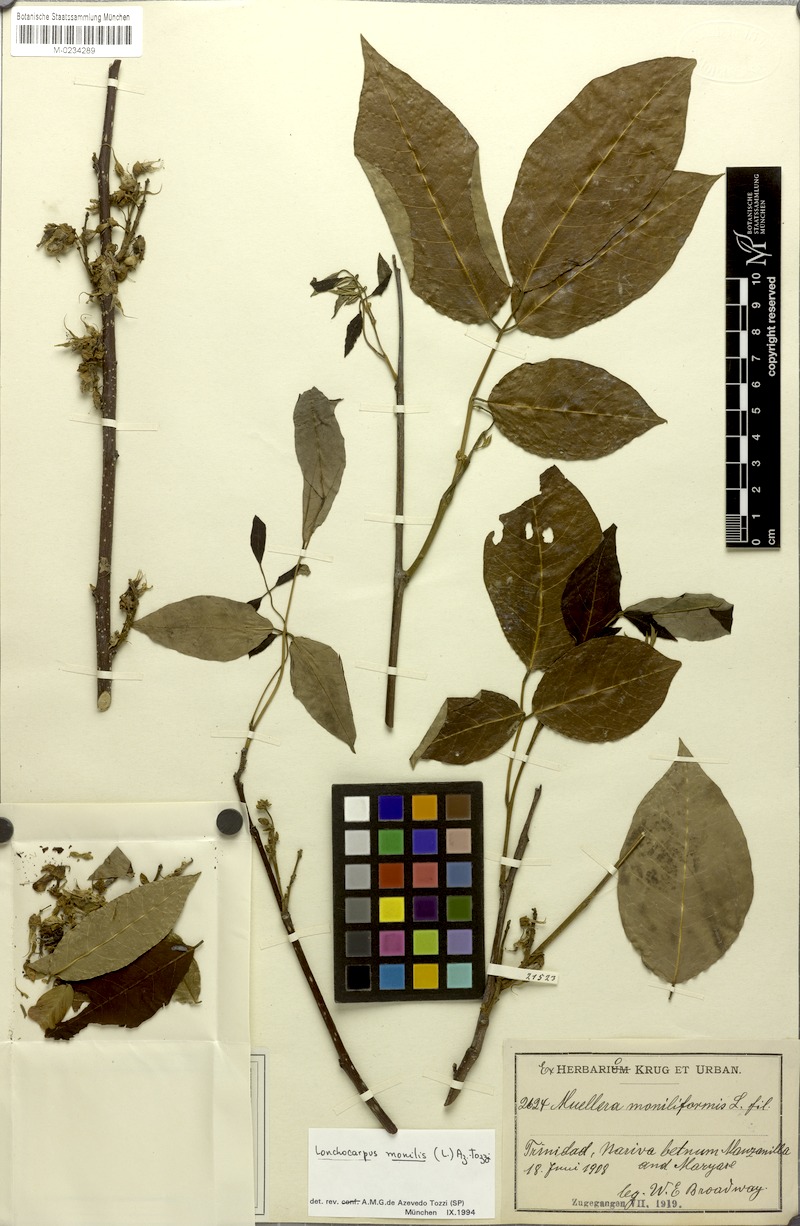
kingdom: Plantae
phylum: Tracheophyta
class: Magnoliopsida
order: Fabales
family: Fabaceae
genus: Muellera
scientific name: Muellera monilis
